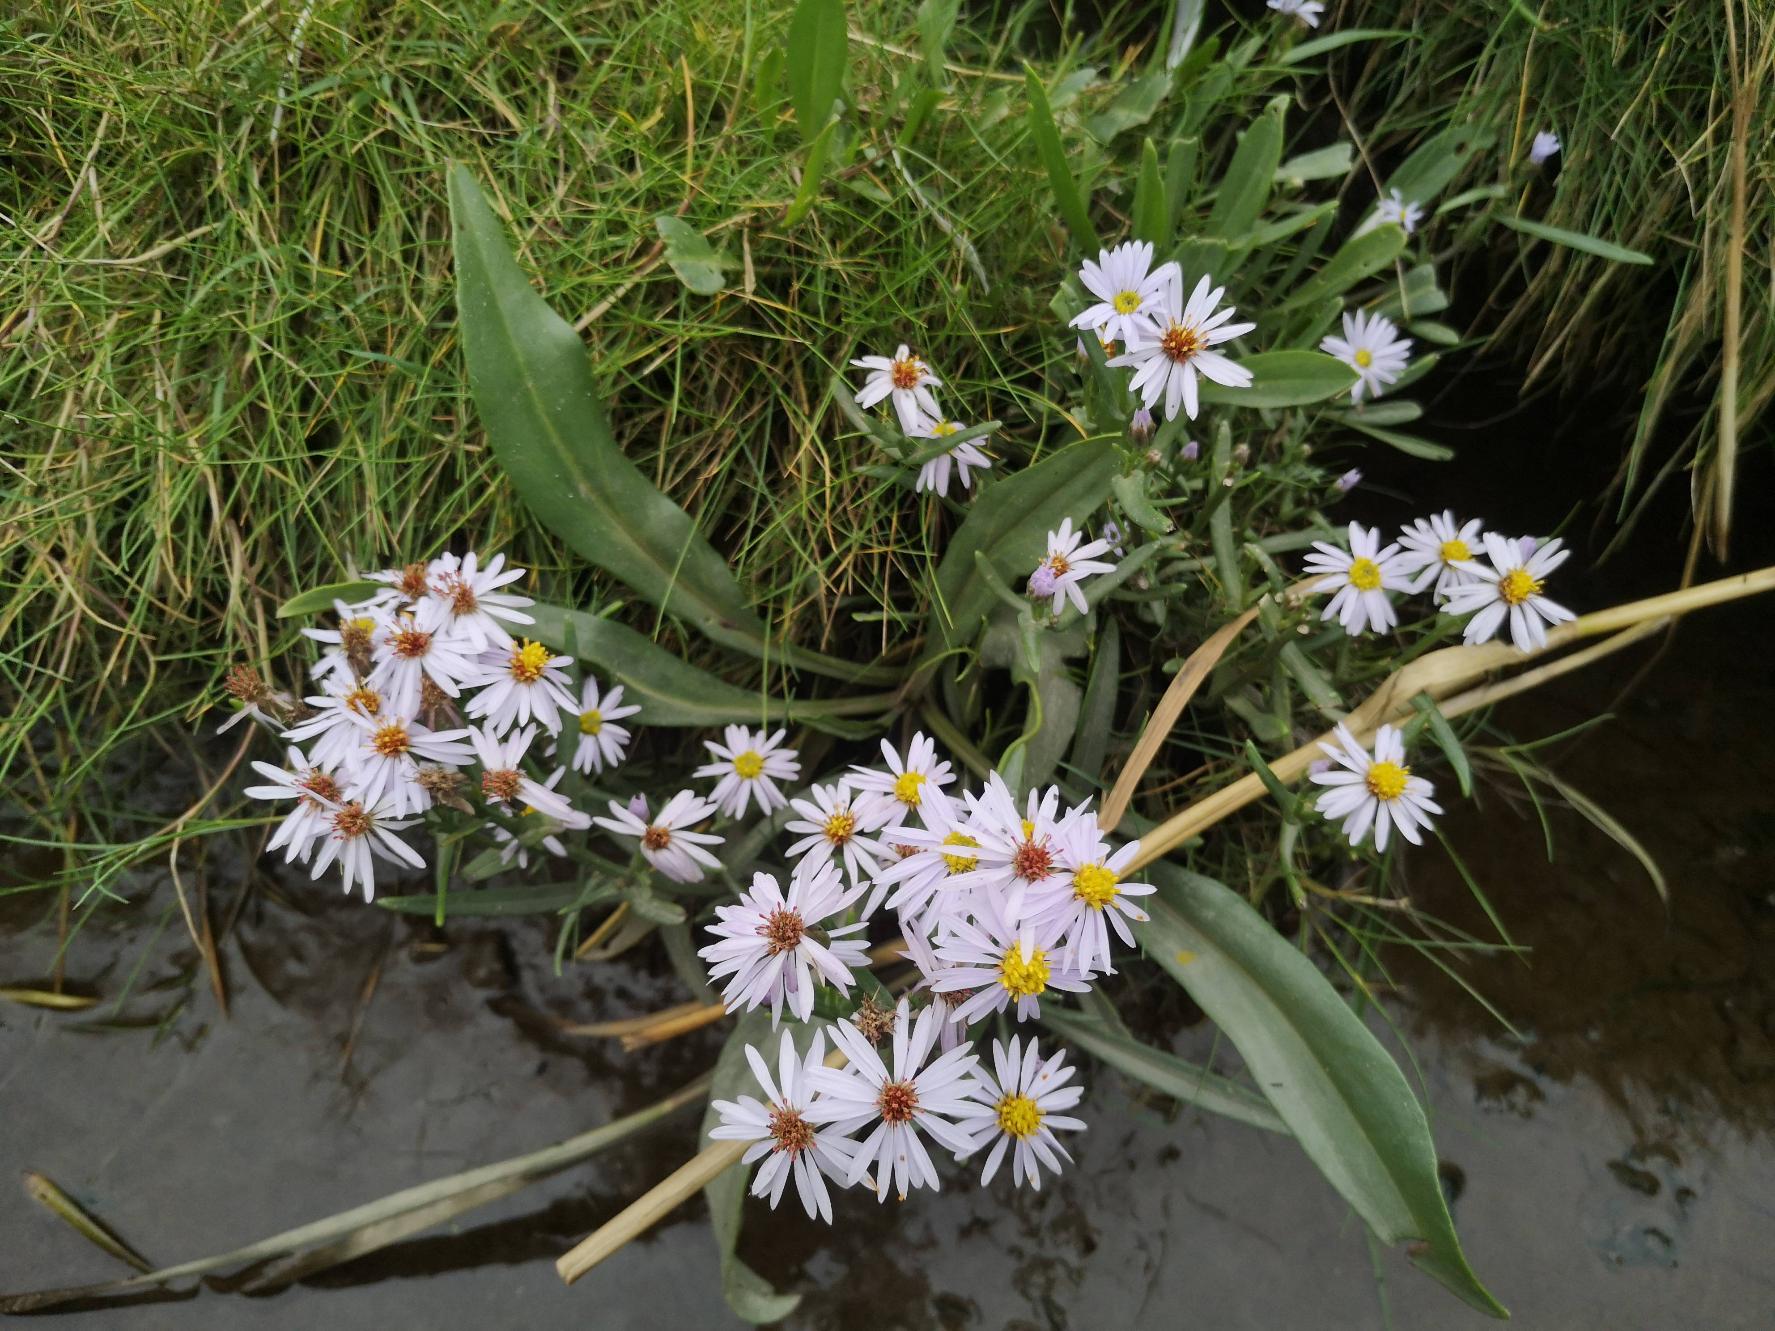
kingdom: Plantae
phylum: Tracheophyta
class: Magnoliopsida
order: Asterales
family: Asteraceae
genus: Tripolium
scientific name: Tripolium pannonicum
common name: Strandasters
